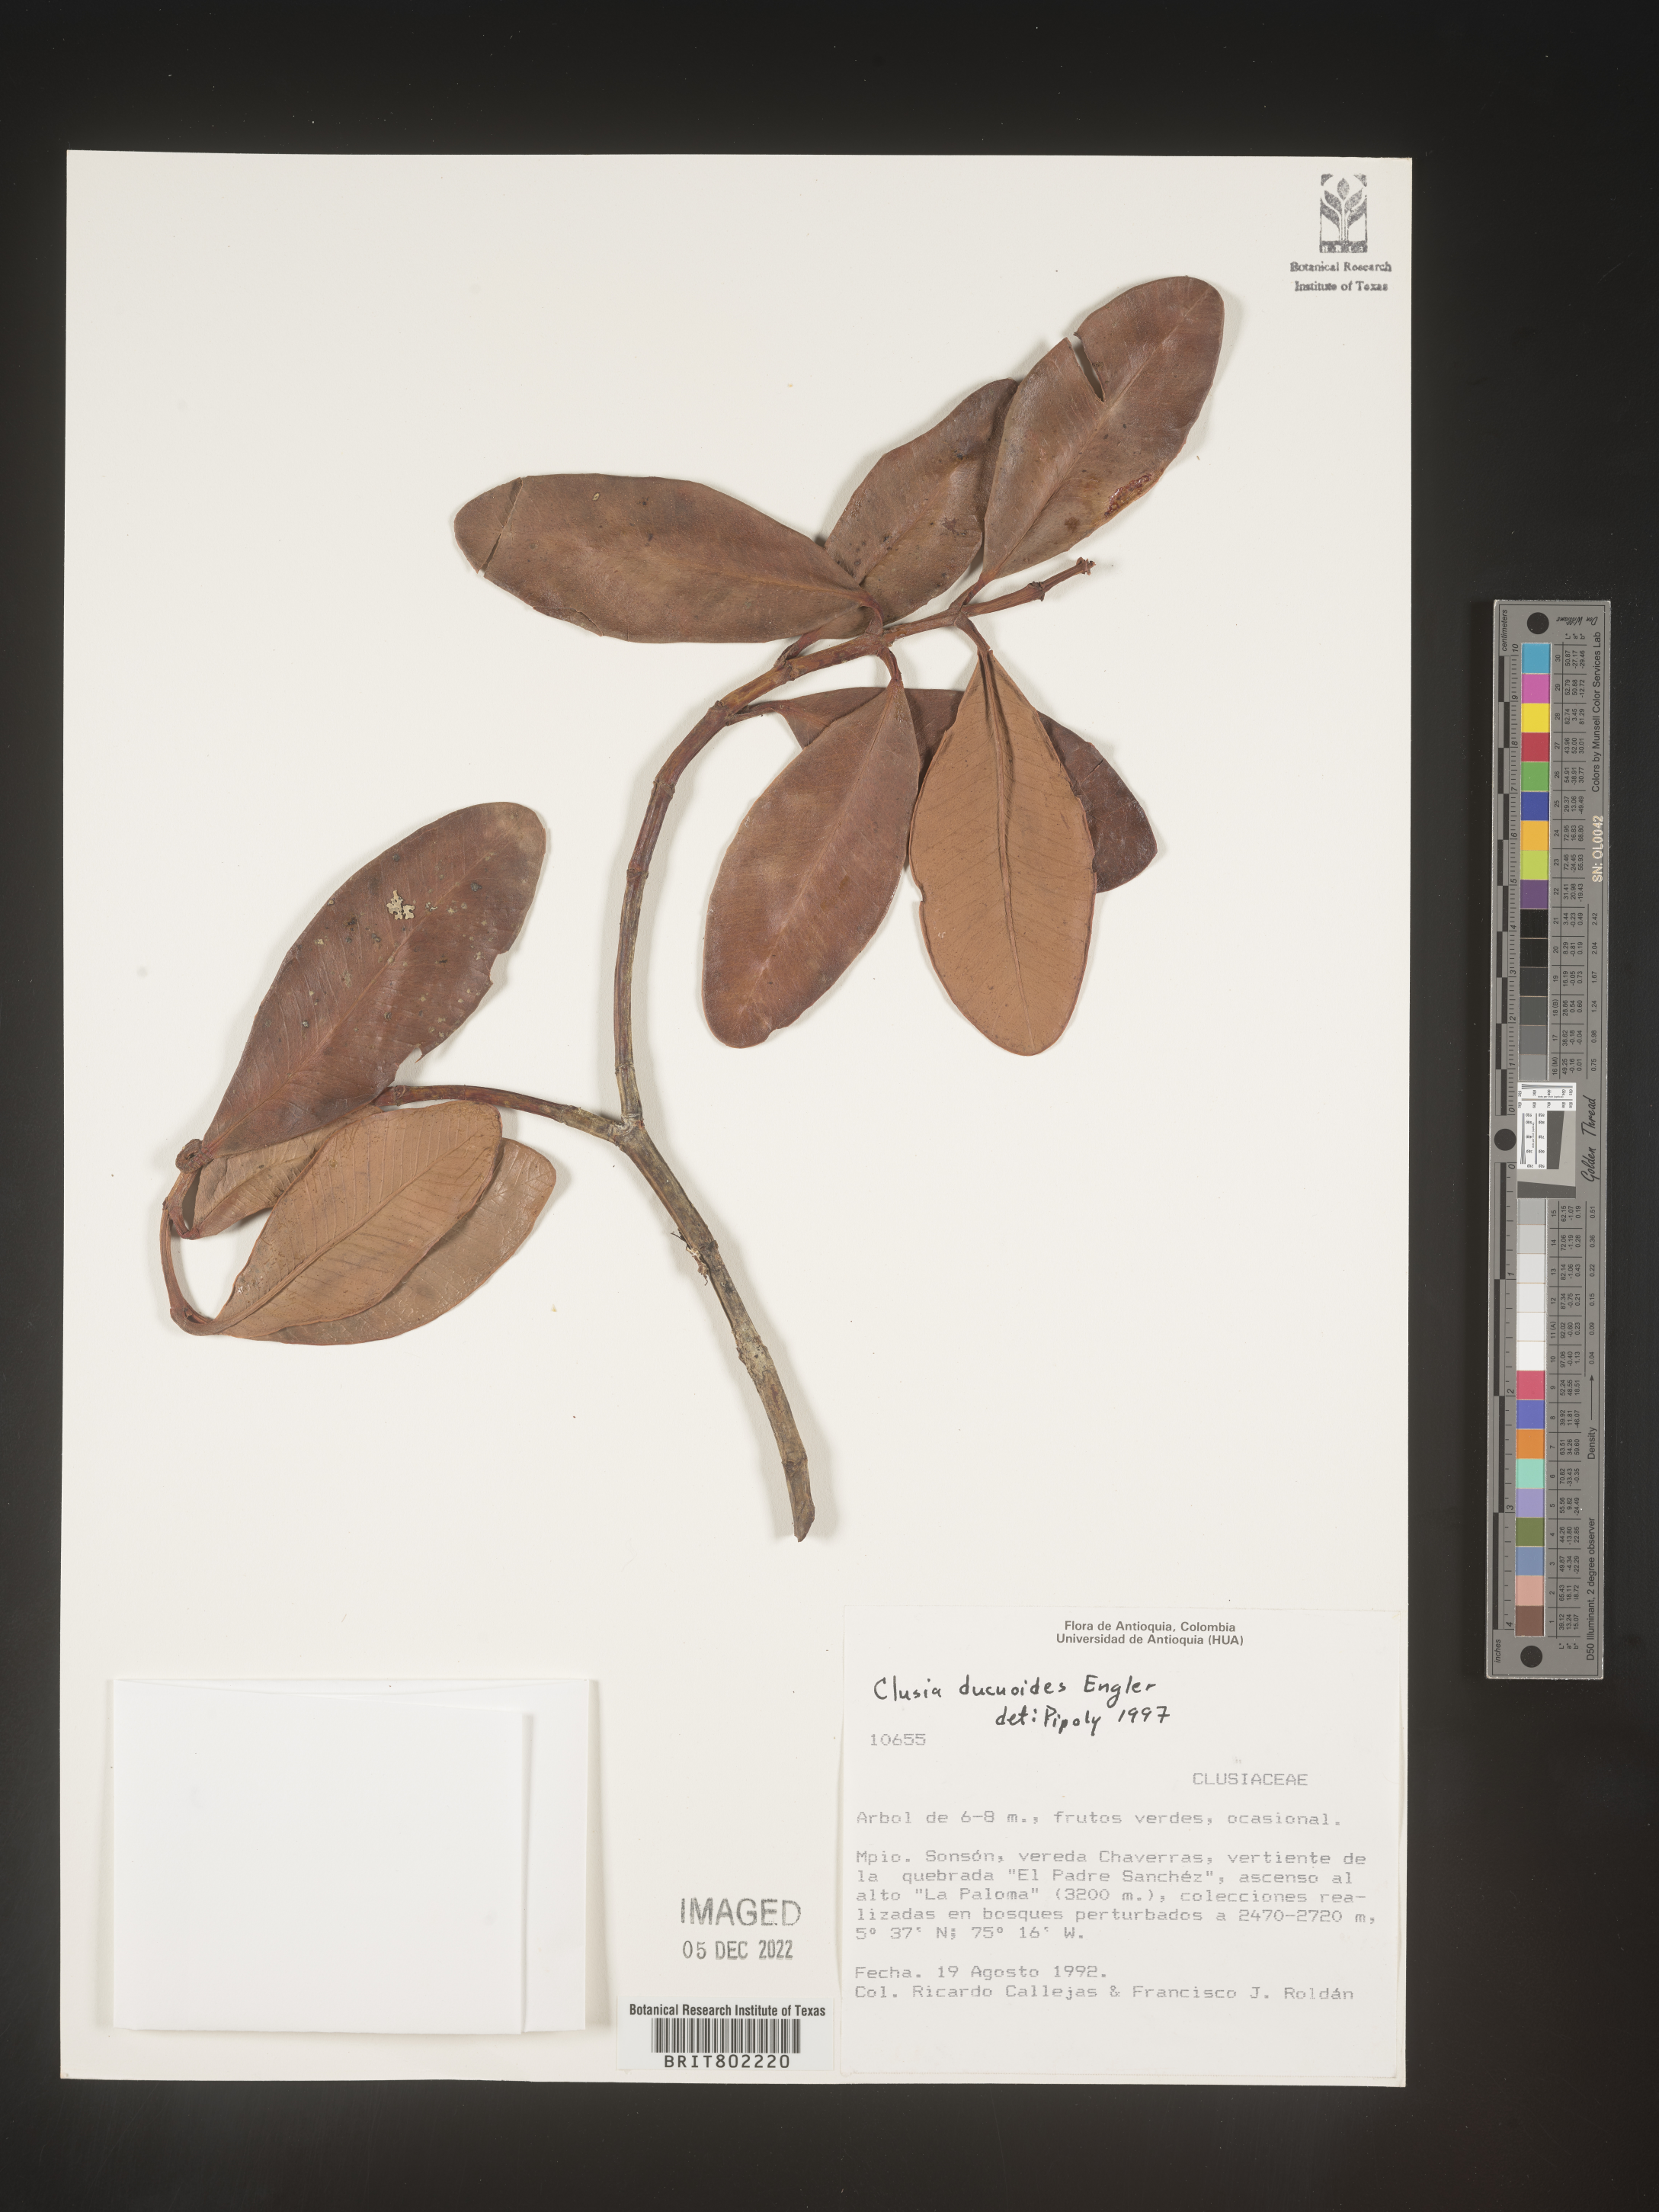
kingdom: Plantae
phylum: Tracheophyta
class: Magnoliopsida
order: Malpighiales
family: Clusiaceae
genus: Clusia
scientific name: Clusia ducuoides
